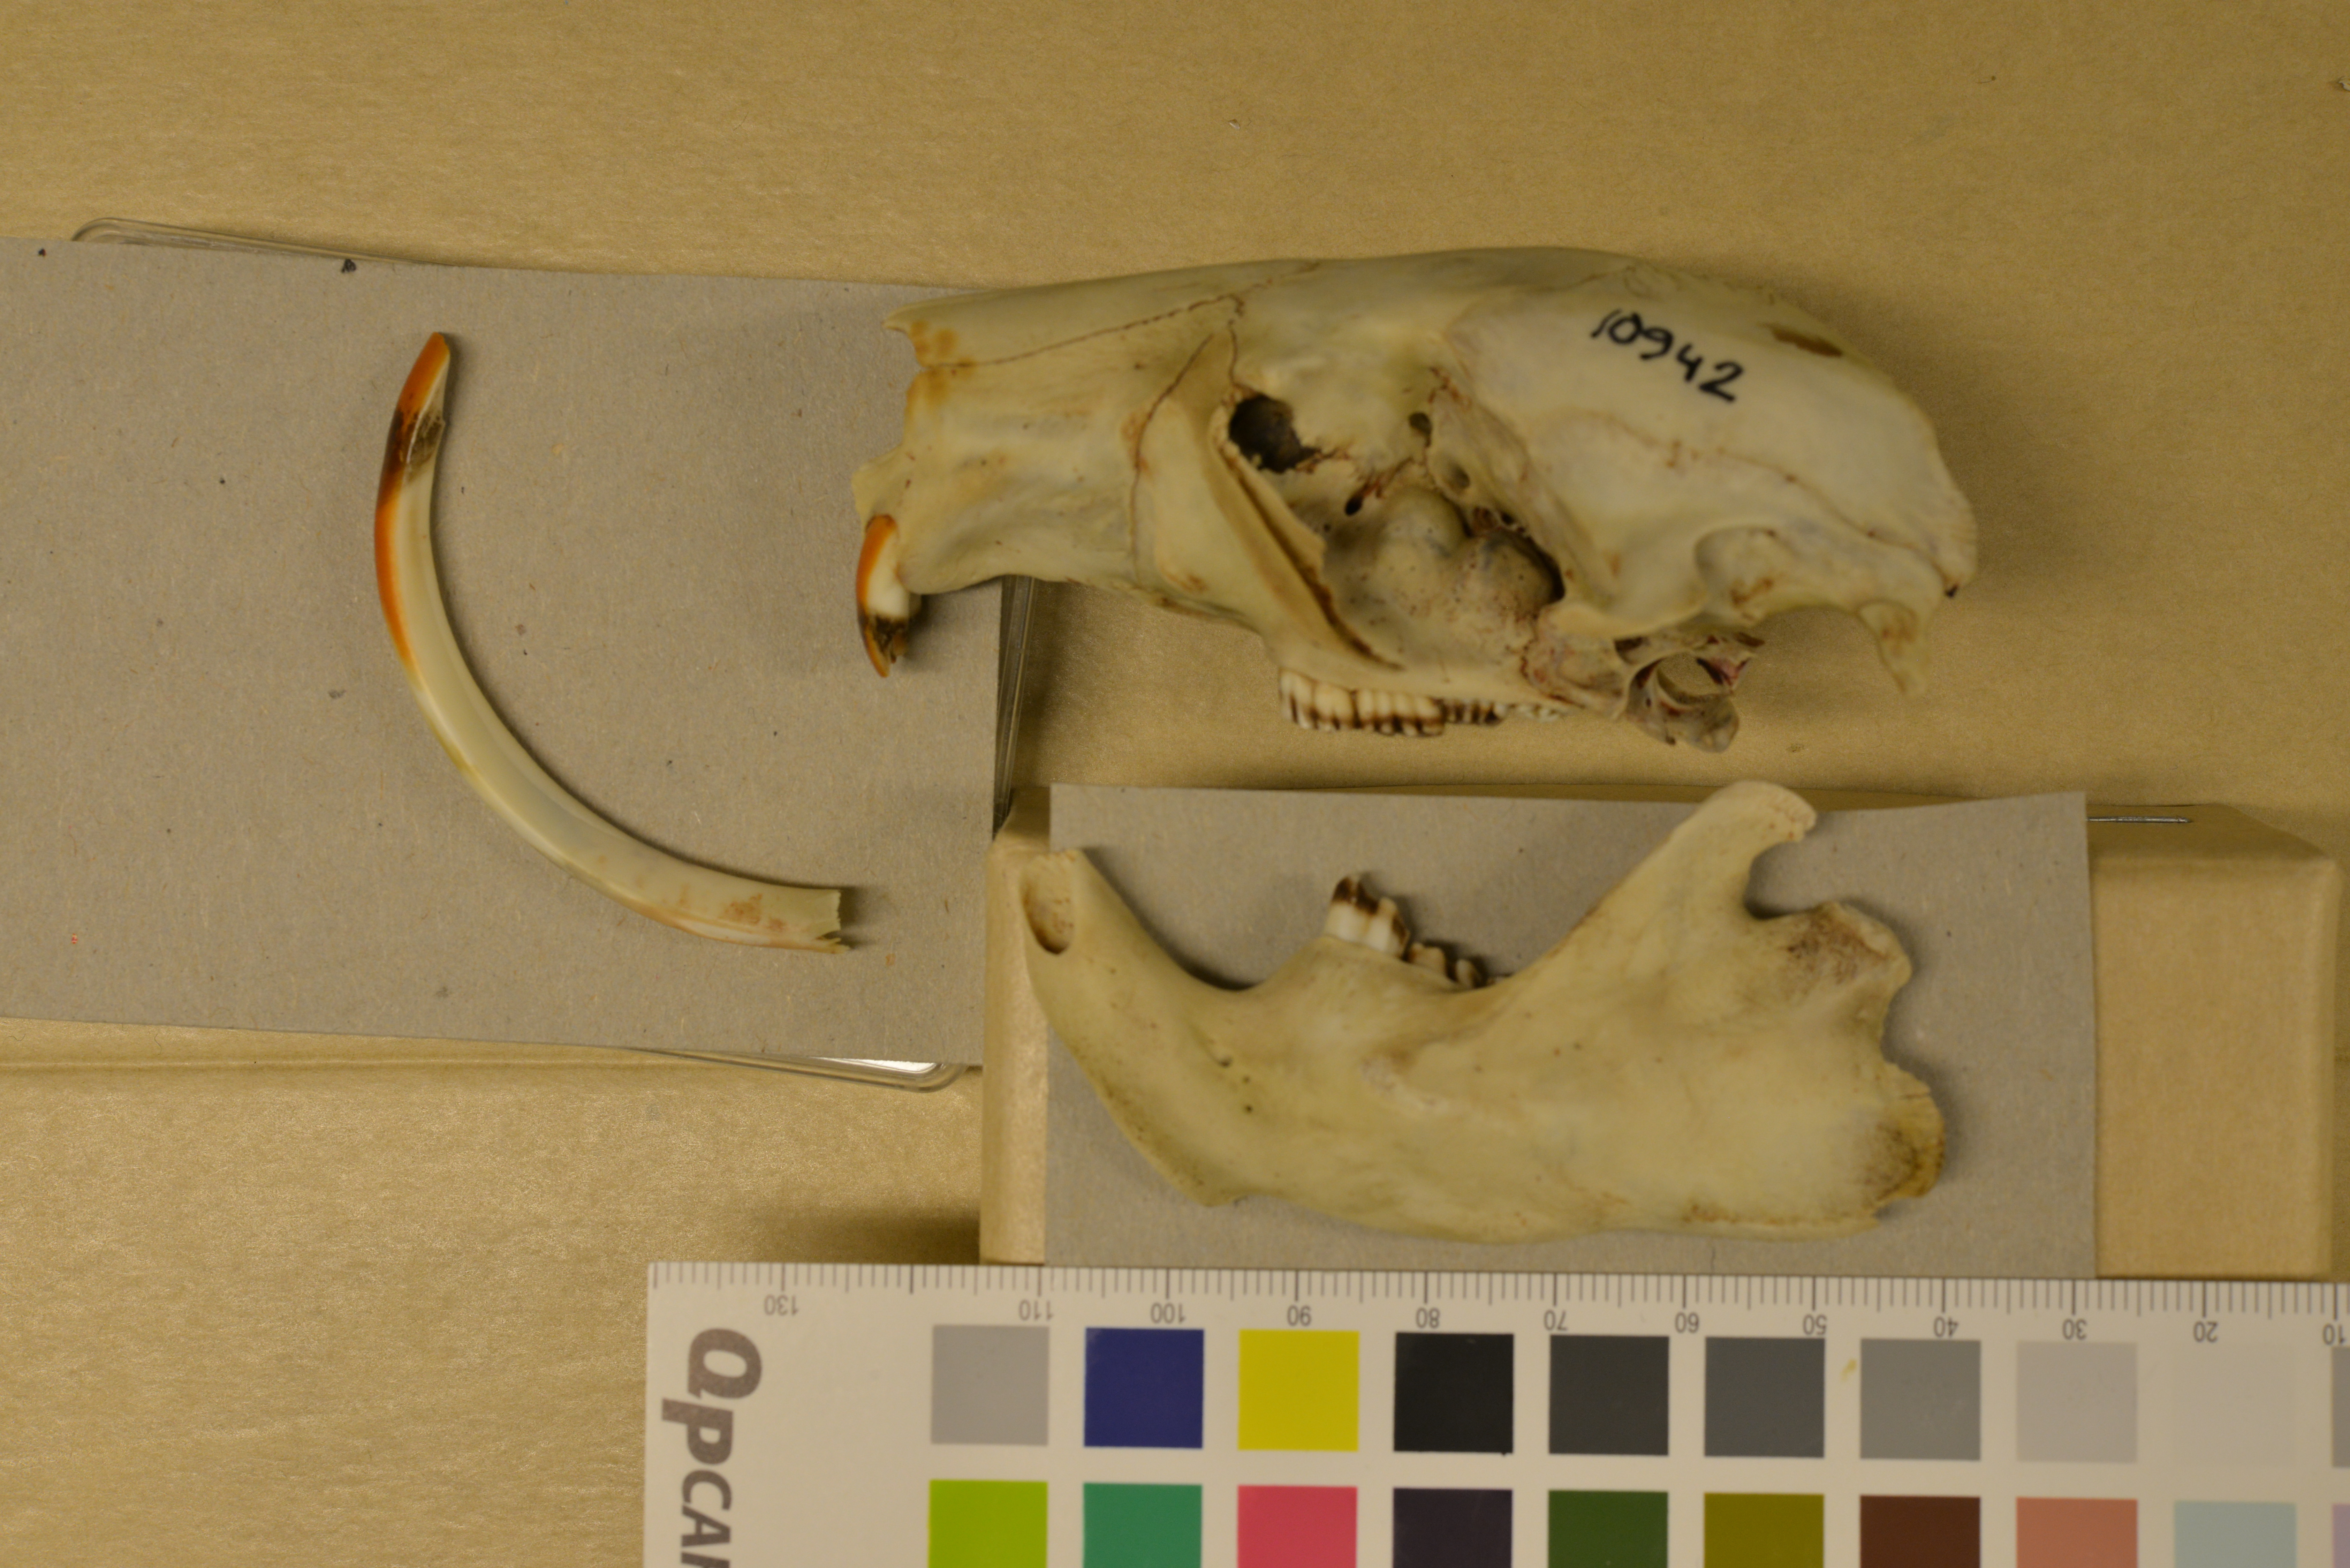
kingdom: Animalia
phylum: Chordata
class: Mammalia
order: Rodentia
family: Castoridae
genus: Castor
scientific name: Castor fiber
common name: Eurasian beaver
